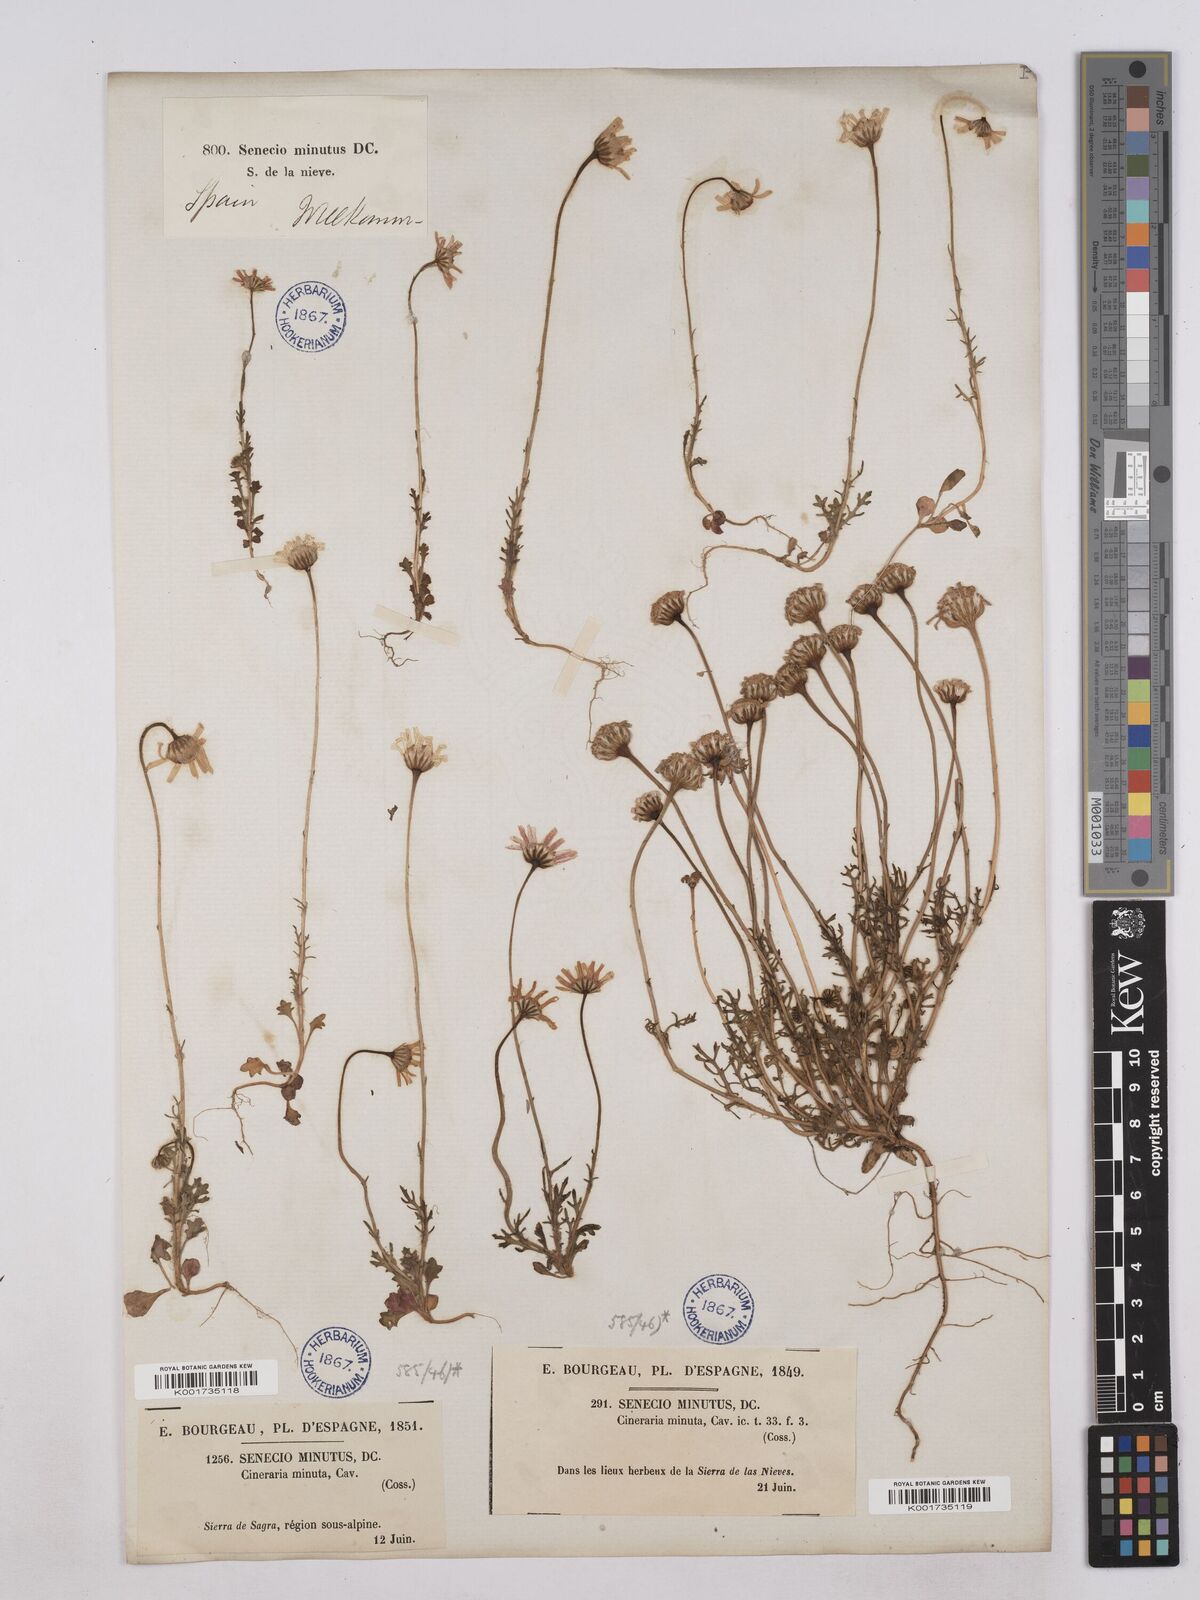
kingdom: Plantae
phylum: Tracheophyta
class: Magnoliopsida
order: Asterales
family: Asteraceae
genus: Jacobaea
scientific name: Jacobaea minuta
